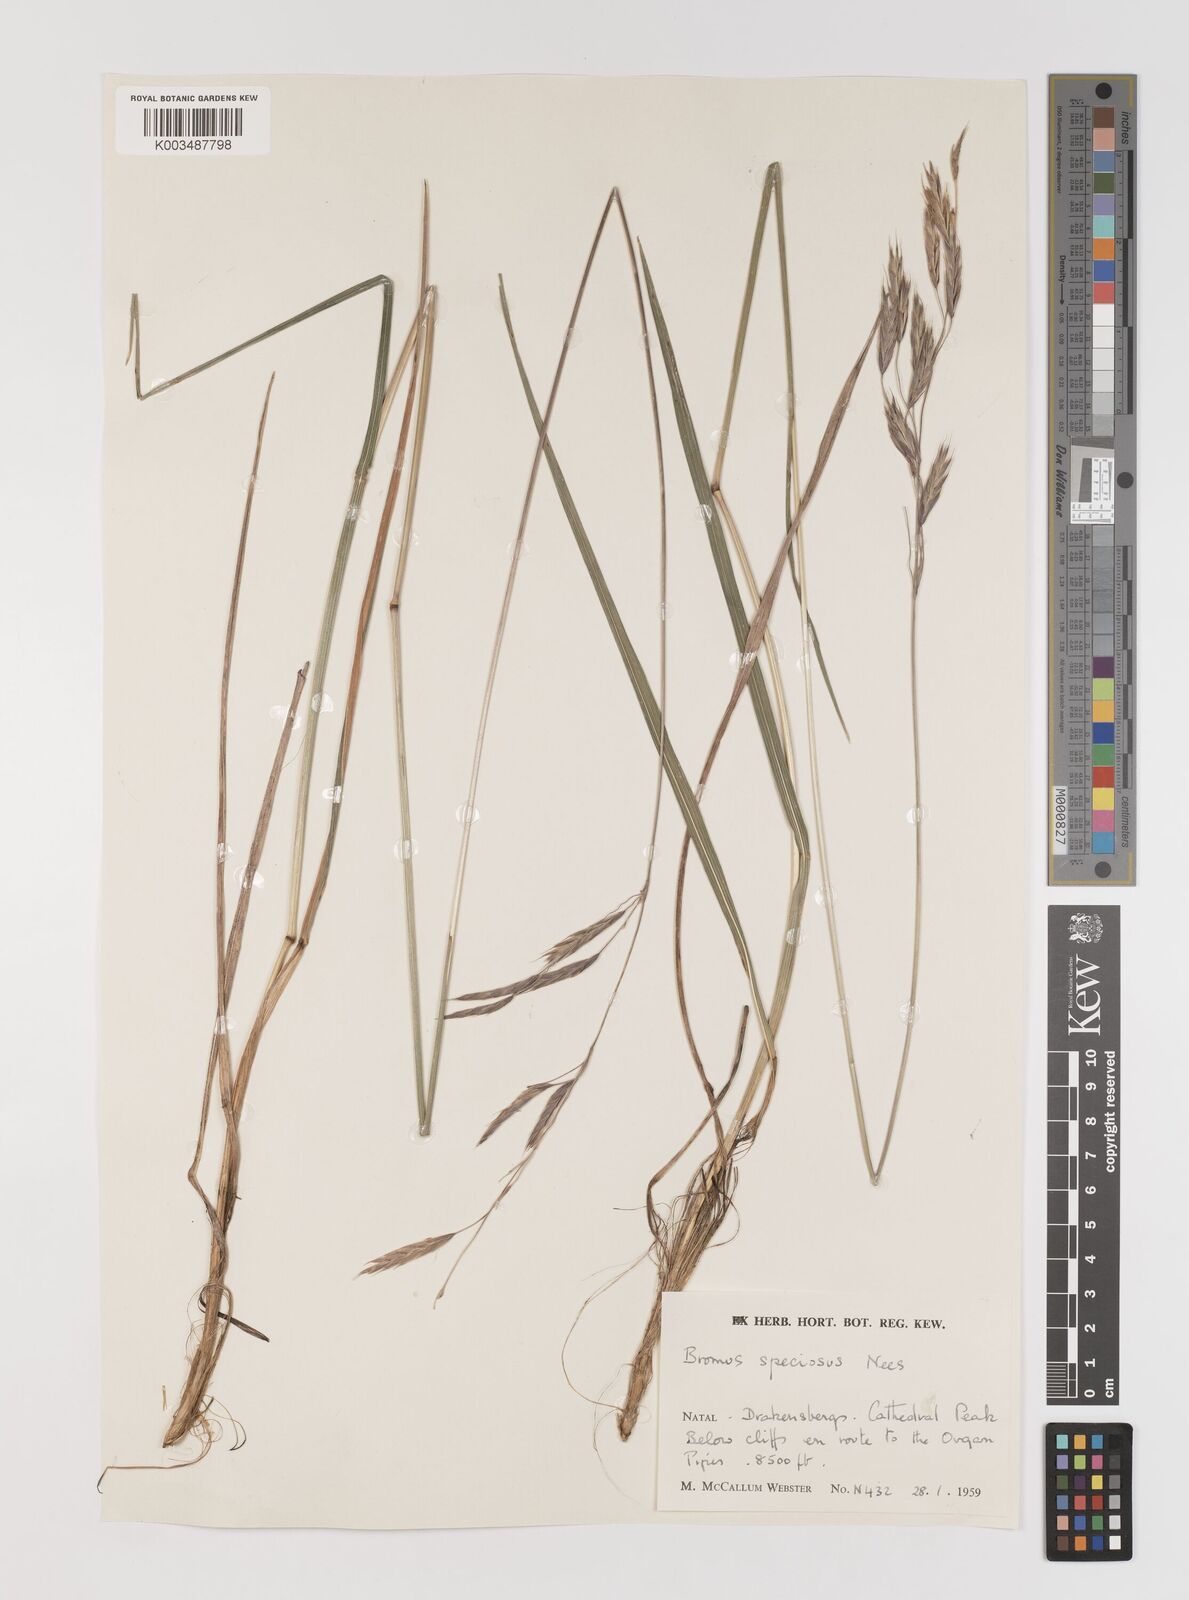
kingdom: Plantae
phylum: Tracheophyta
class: Liliopsida
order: Poales
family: Poaceae
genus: Bromus
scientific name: Bromus speciosus
